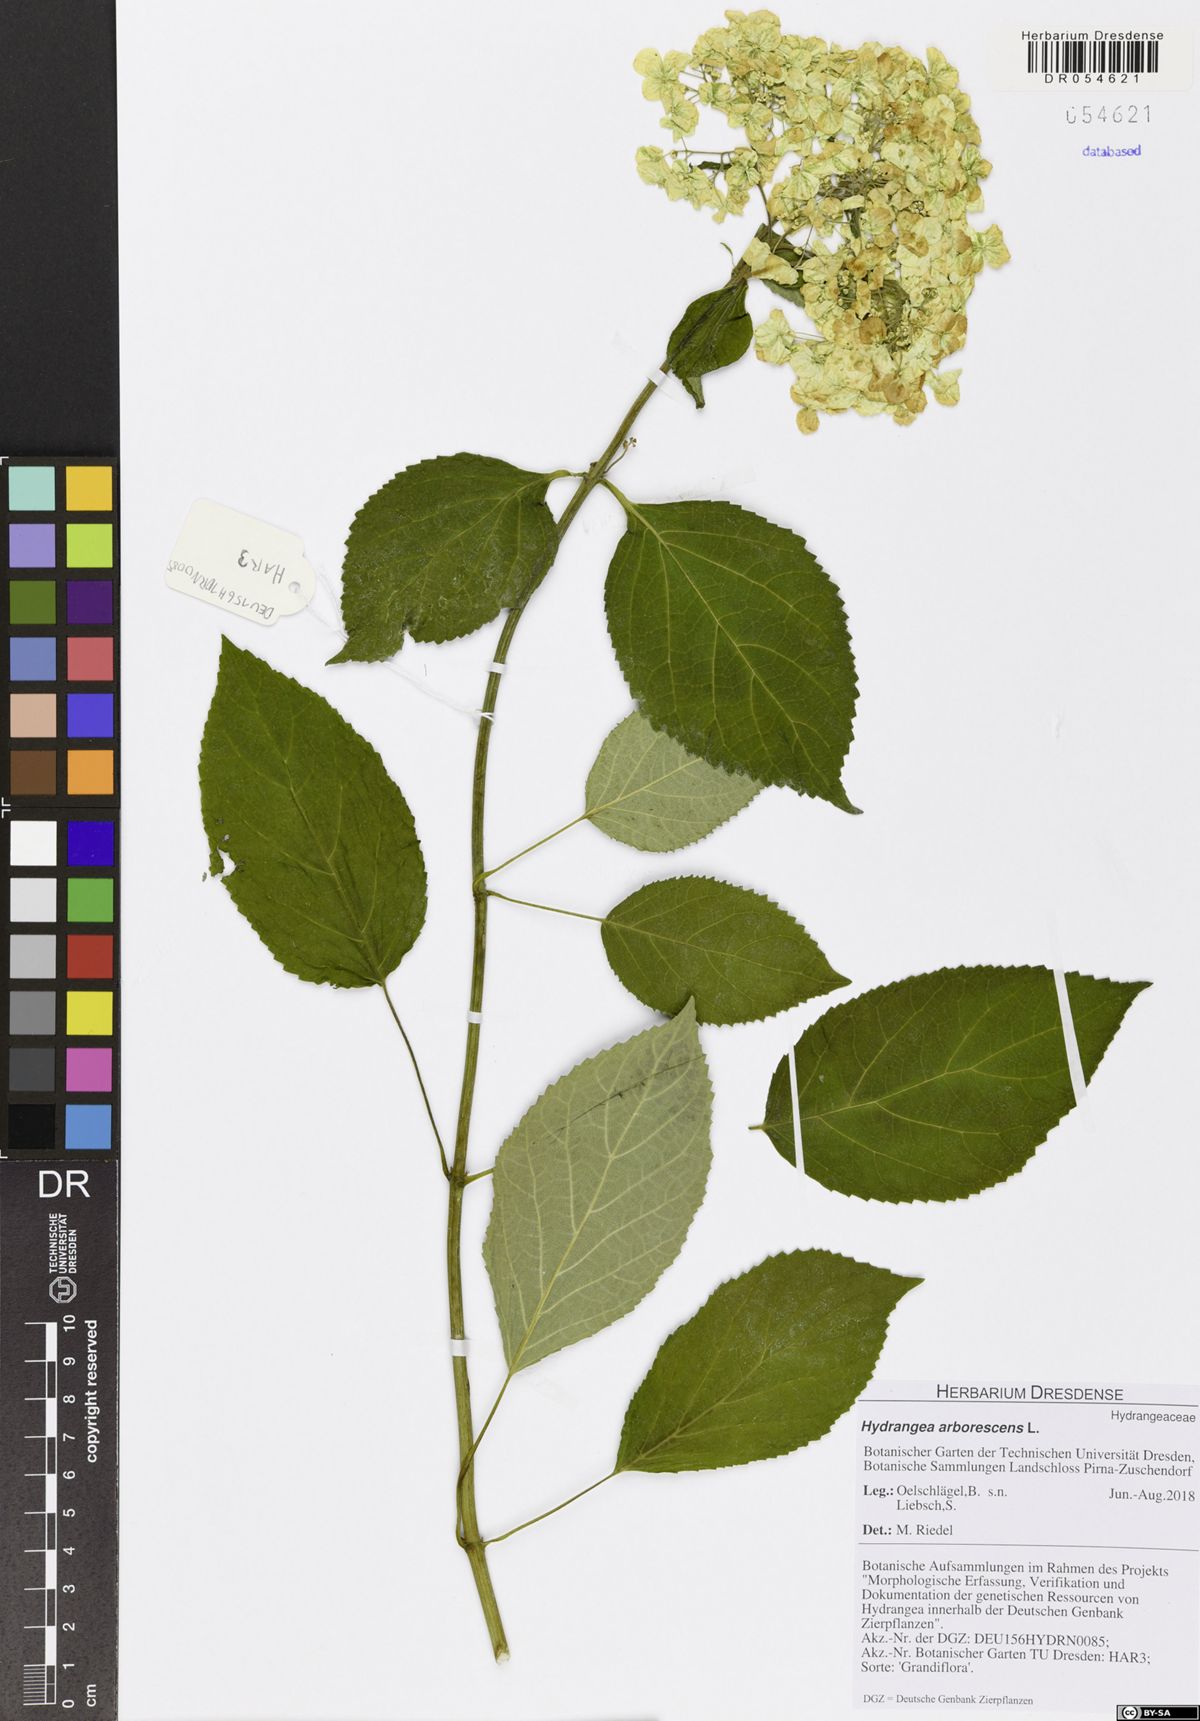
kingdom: Plantae
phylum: Tracheophyta
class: Magnoliopsida
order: Cornales
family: Hydrangeaceae
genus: Hydrangea
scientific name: Hydrangea arborescens
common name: Sevenbark
